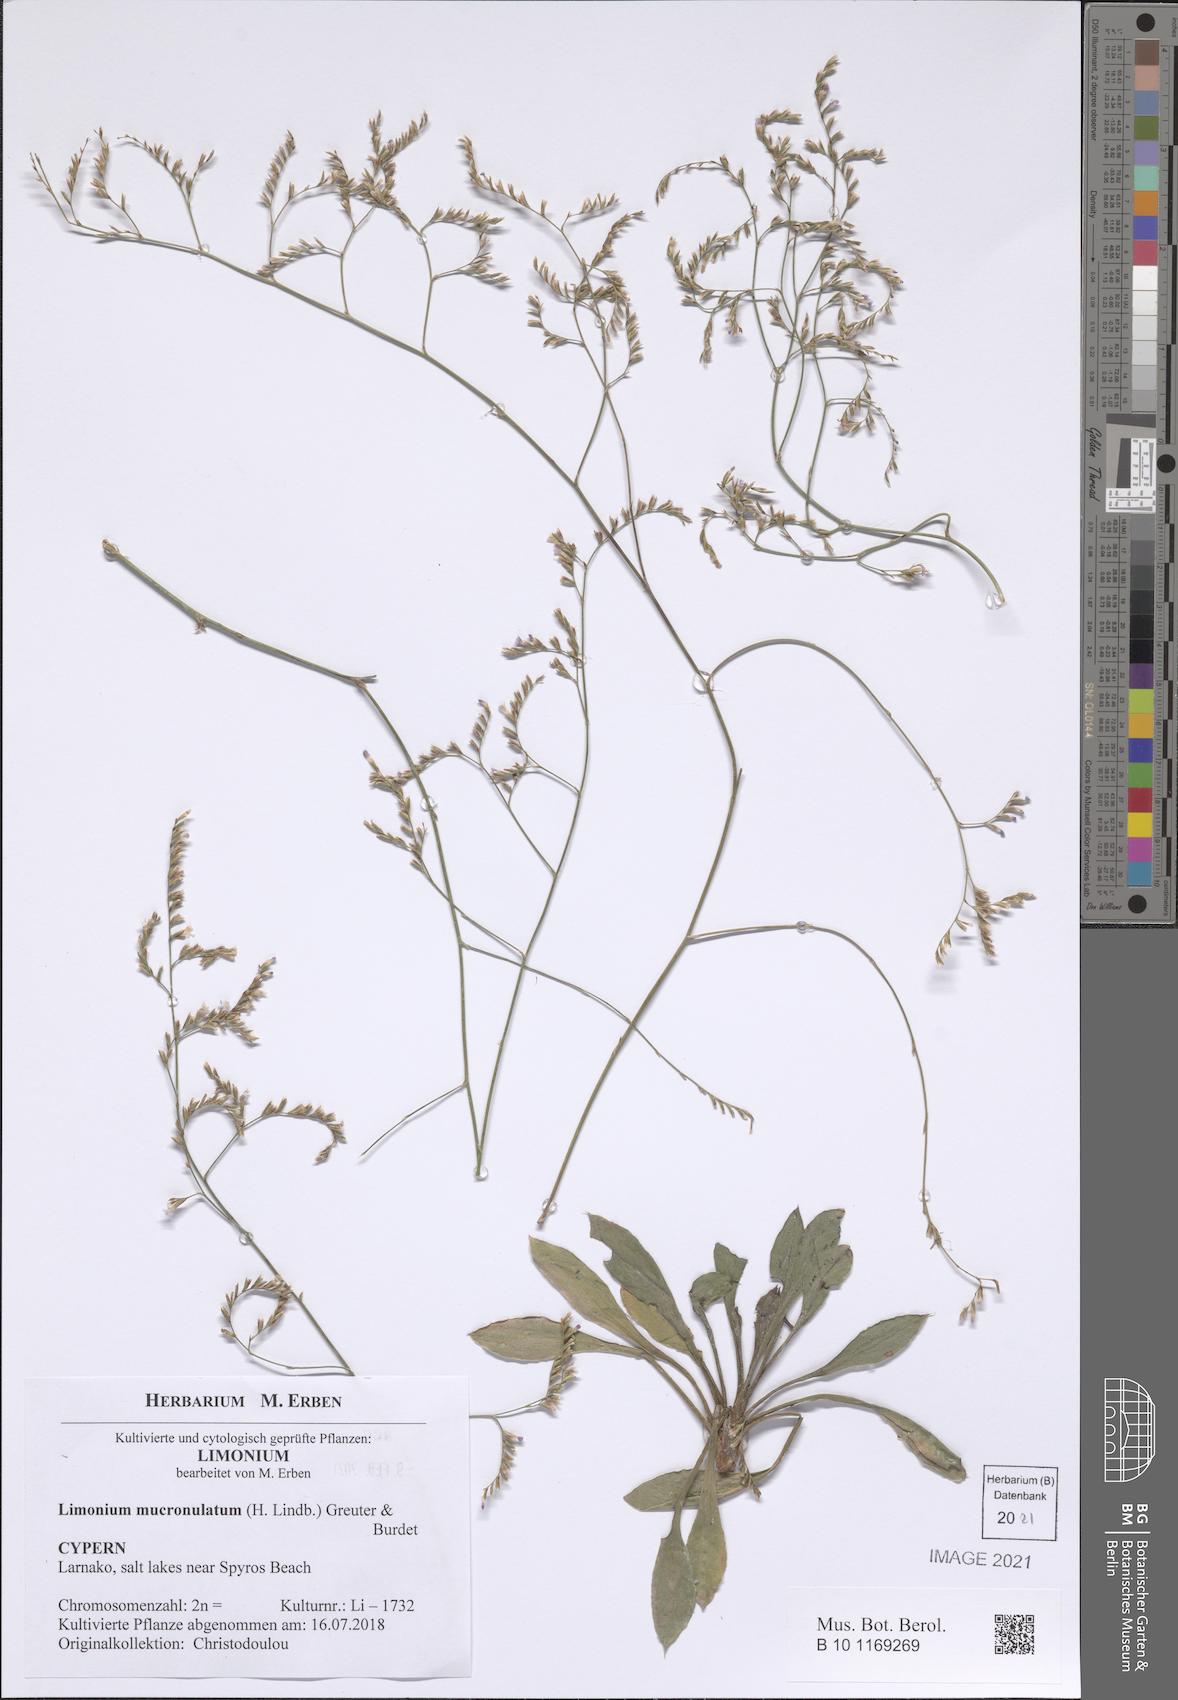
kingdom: Plantae
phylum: Tracheophyta
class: Magnoliopsida
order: Caryophyllales
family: Plumbaginaceae
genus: Limonium
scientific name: Limonium mucronulatum
